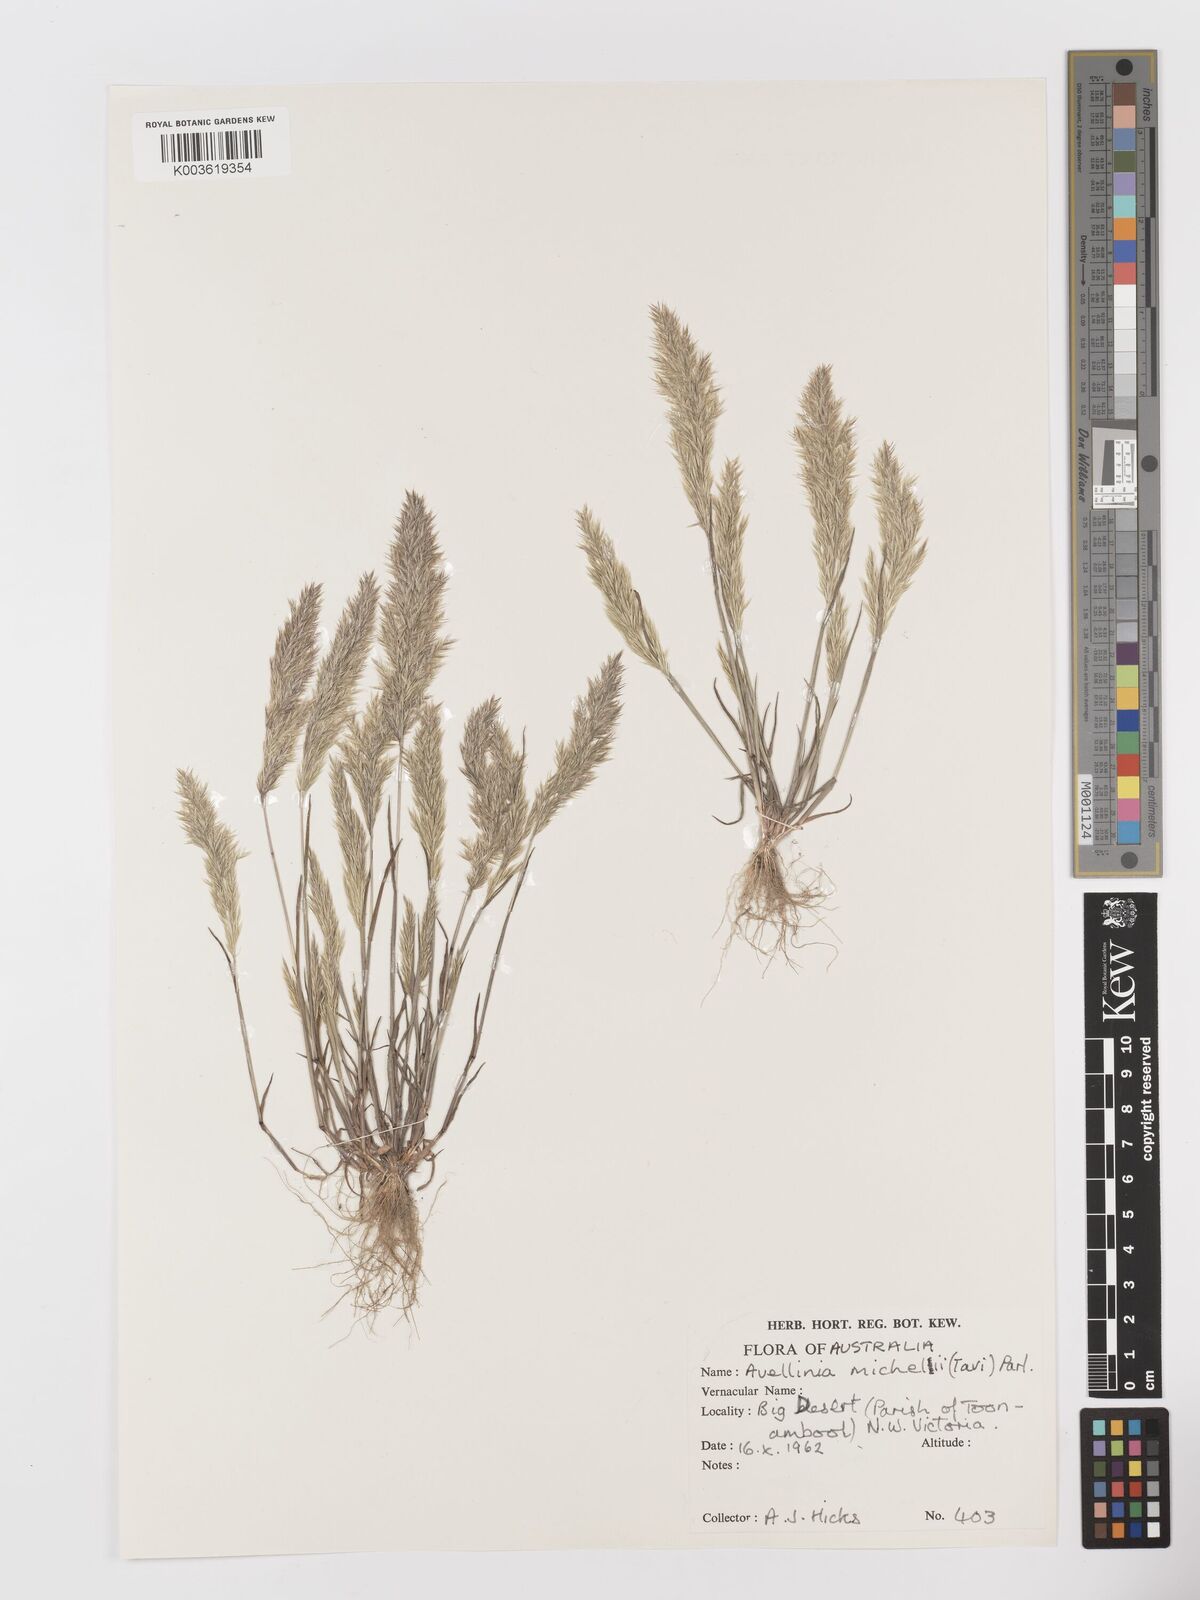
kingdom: Plantae
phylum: Tracheophyta
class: Liliopsida
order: Poales
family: Poaceae
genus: Rostraria
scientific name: Rostraria
